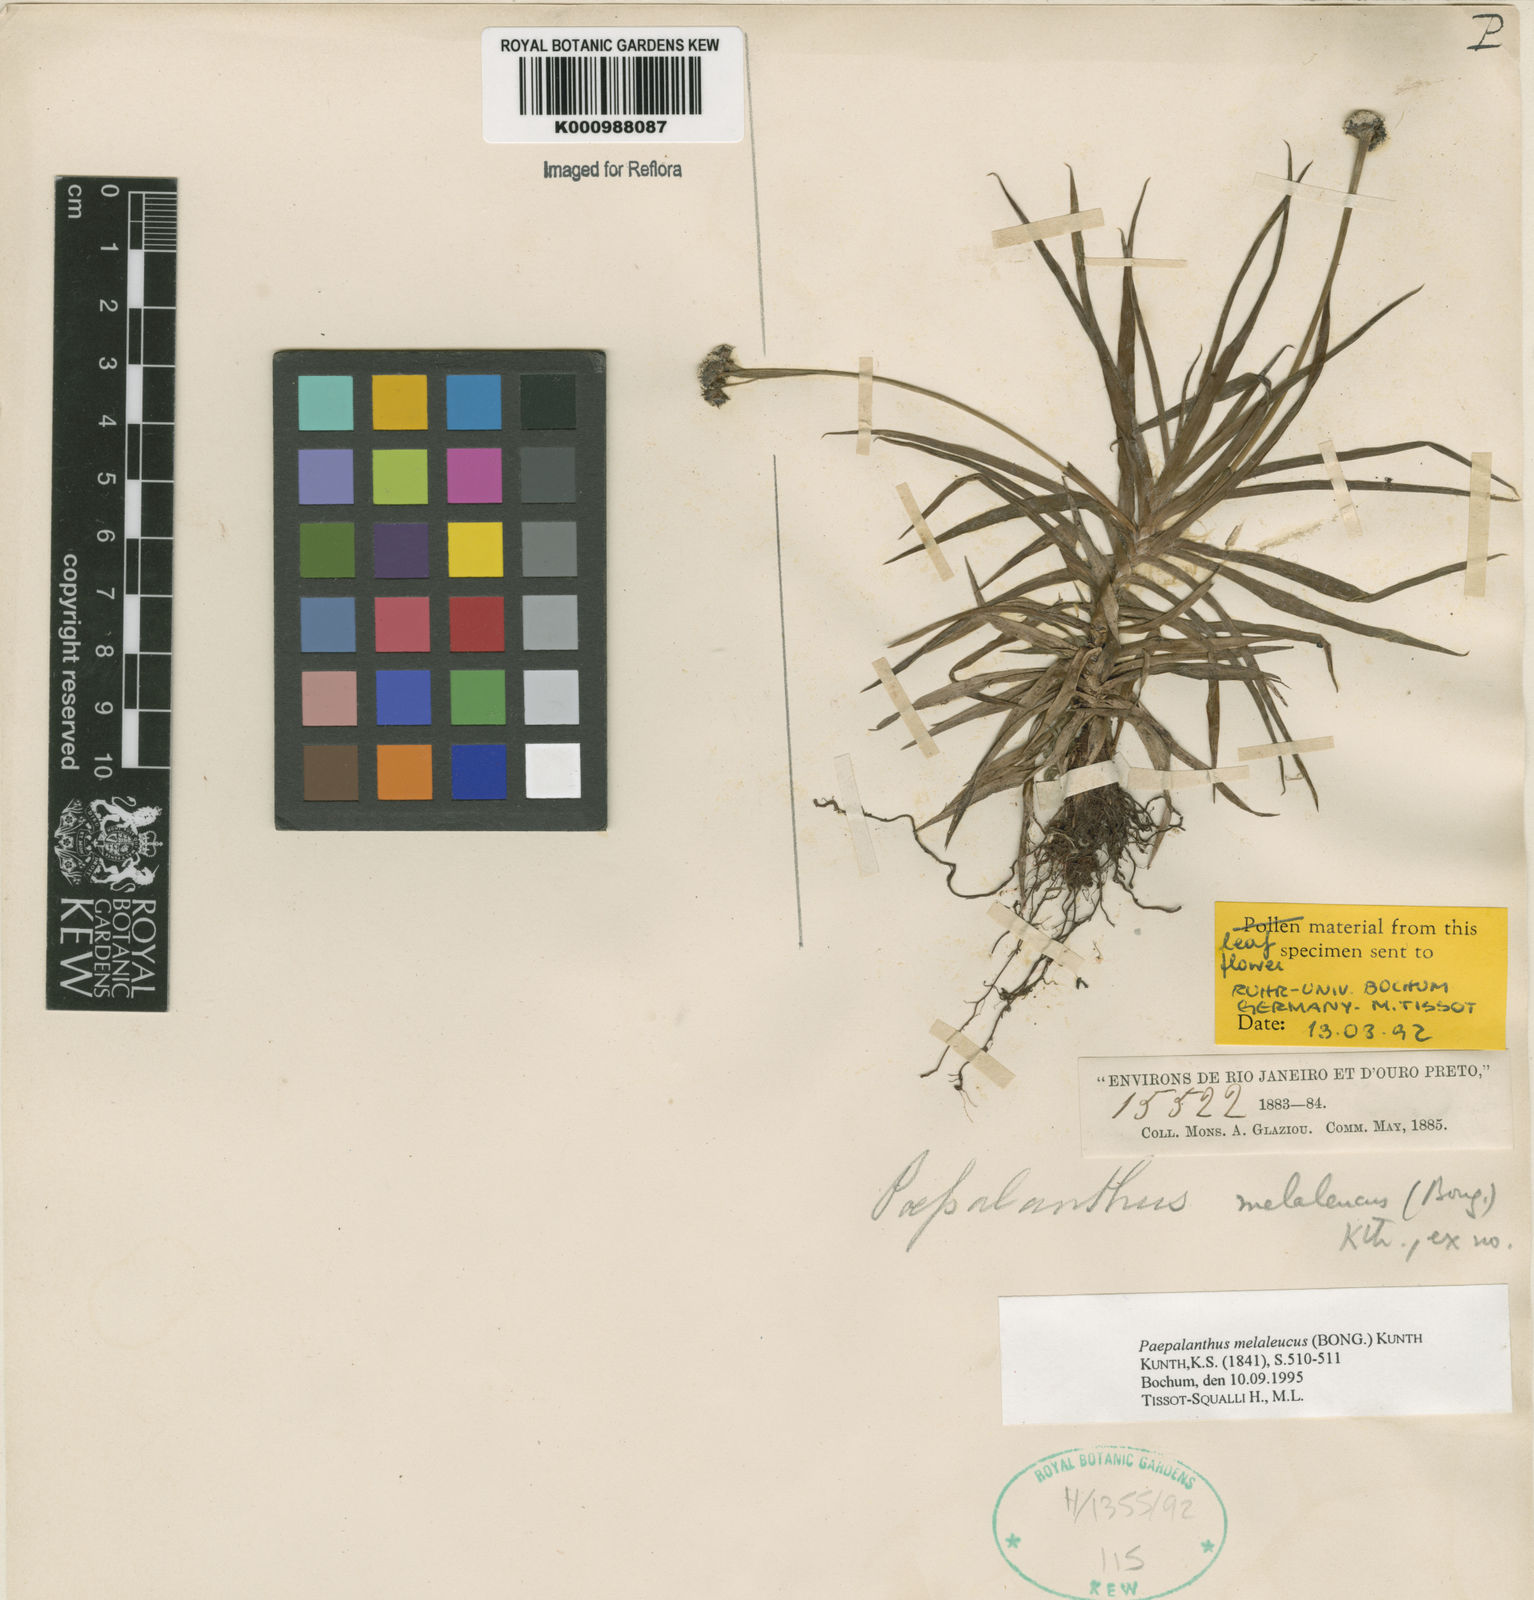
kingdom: Plantae
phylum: Tracheophyta
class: Liliopsida
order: Poales
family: Eriocaulaceae
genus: Paepalanthus
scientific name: Paepalanthus melaleucus
